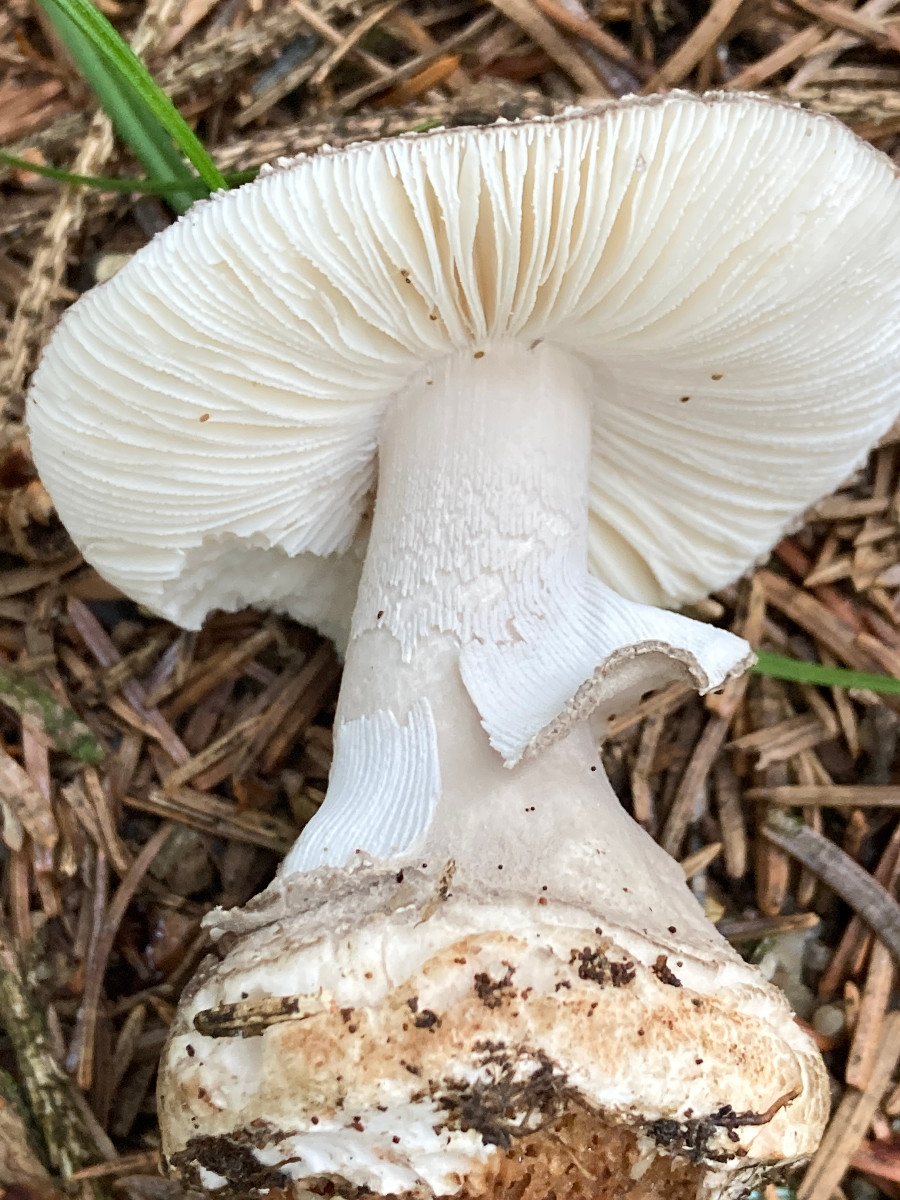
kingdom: Fungi
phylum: Basidiomycota
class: Agaricomycetes
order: Agaricales
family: Amanitaceae
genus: Amanita
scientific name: Amanita
